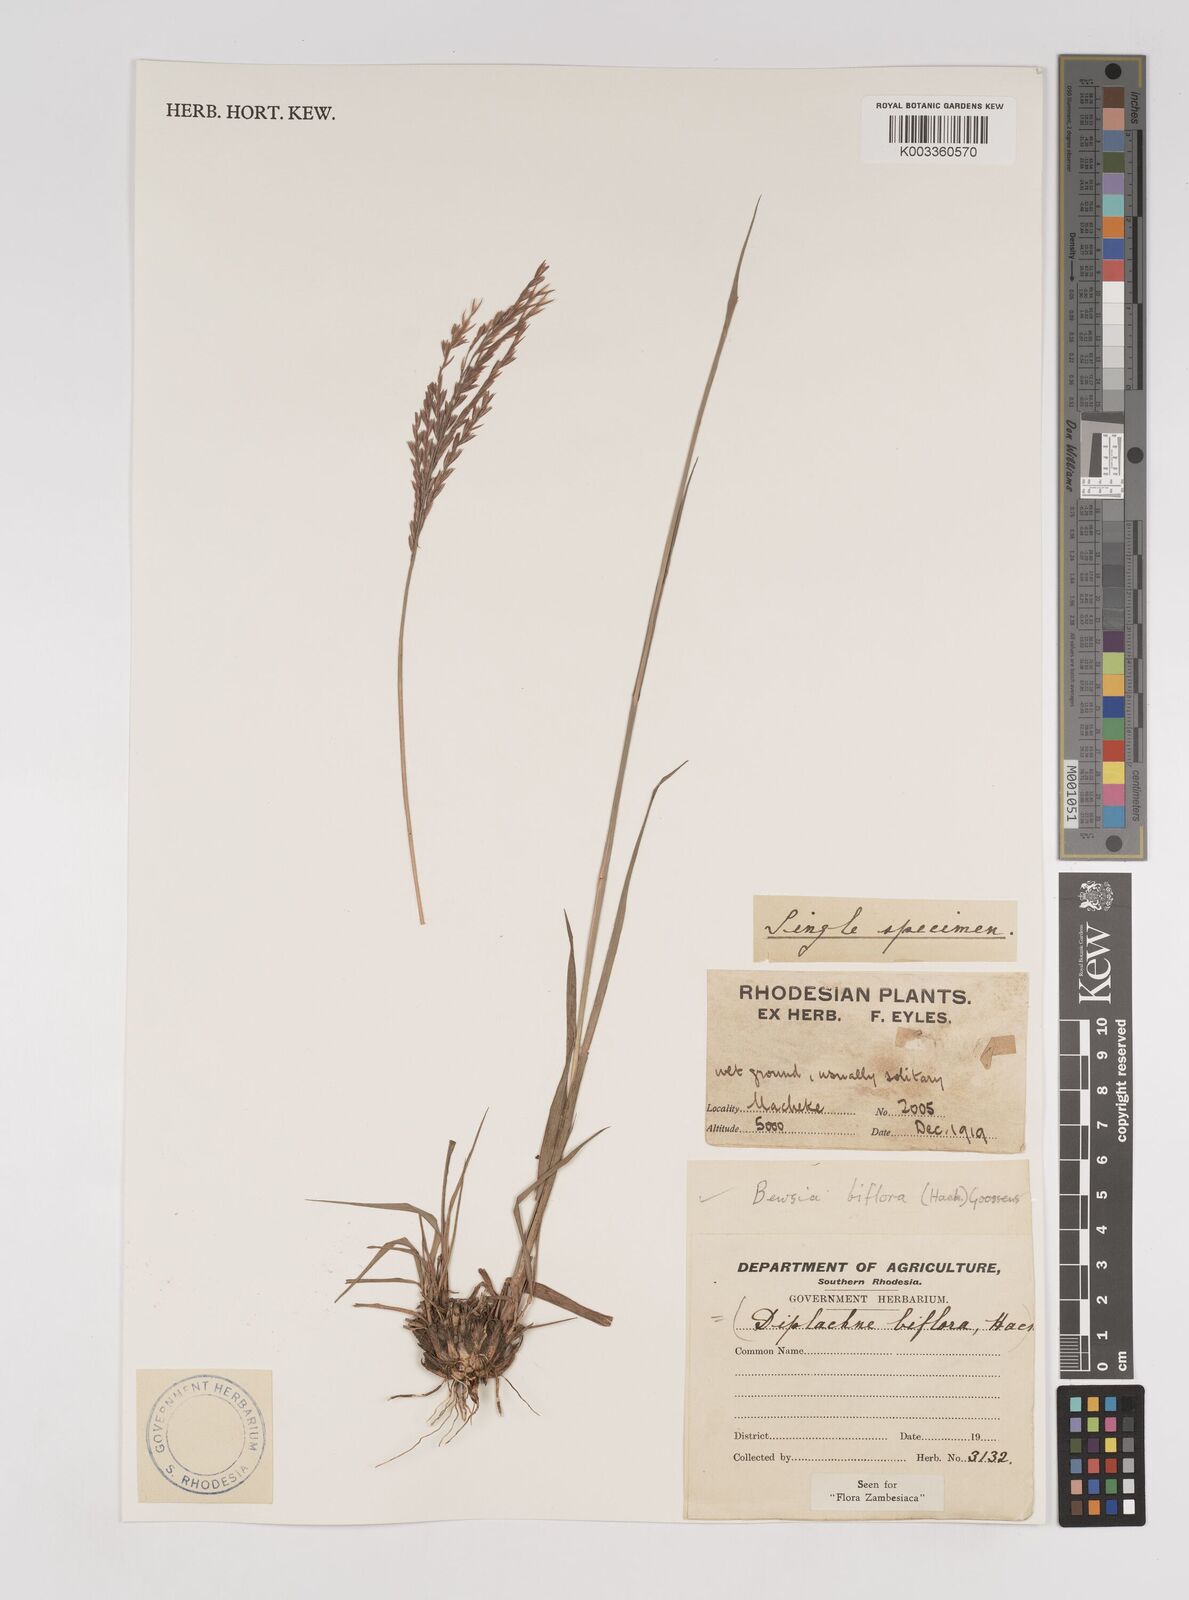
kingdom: Plantae
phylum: Tracheophyta
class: Liliopsida
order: Poales
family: Poaceae
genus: Bewsia
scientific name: Bewsia biflora
